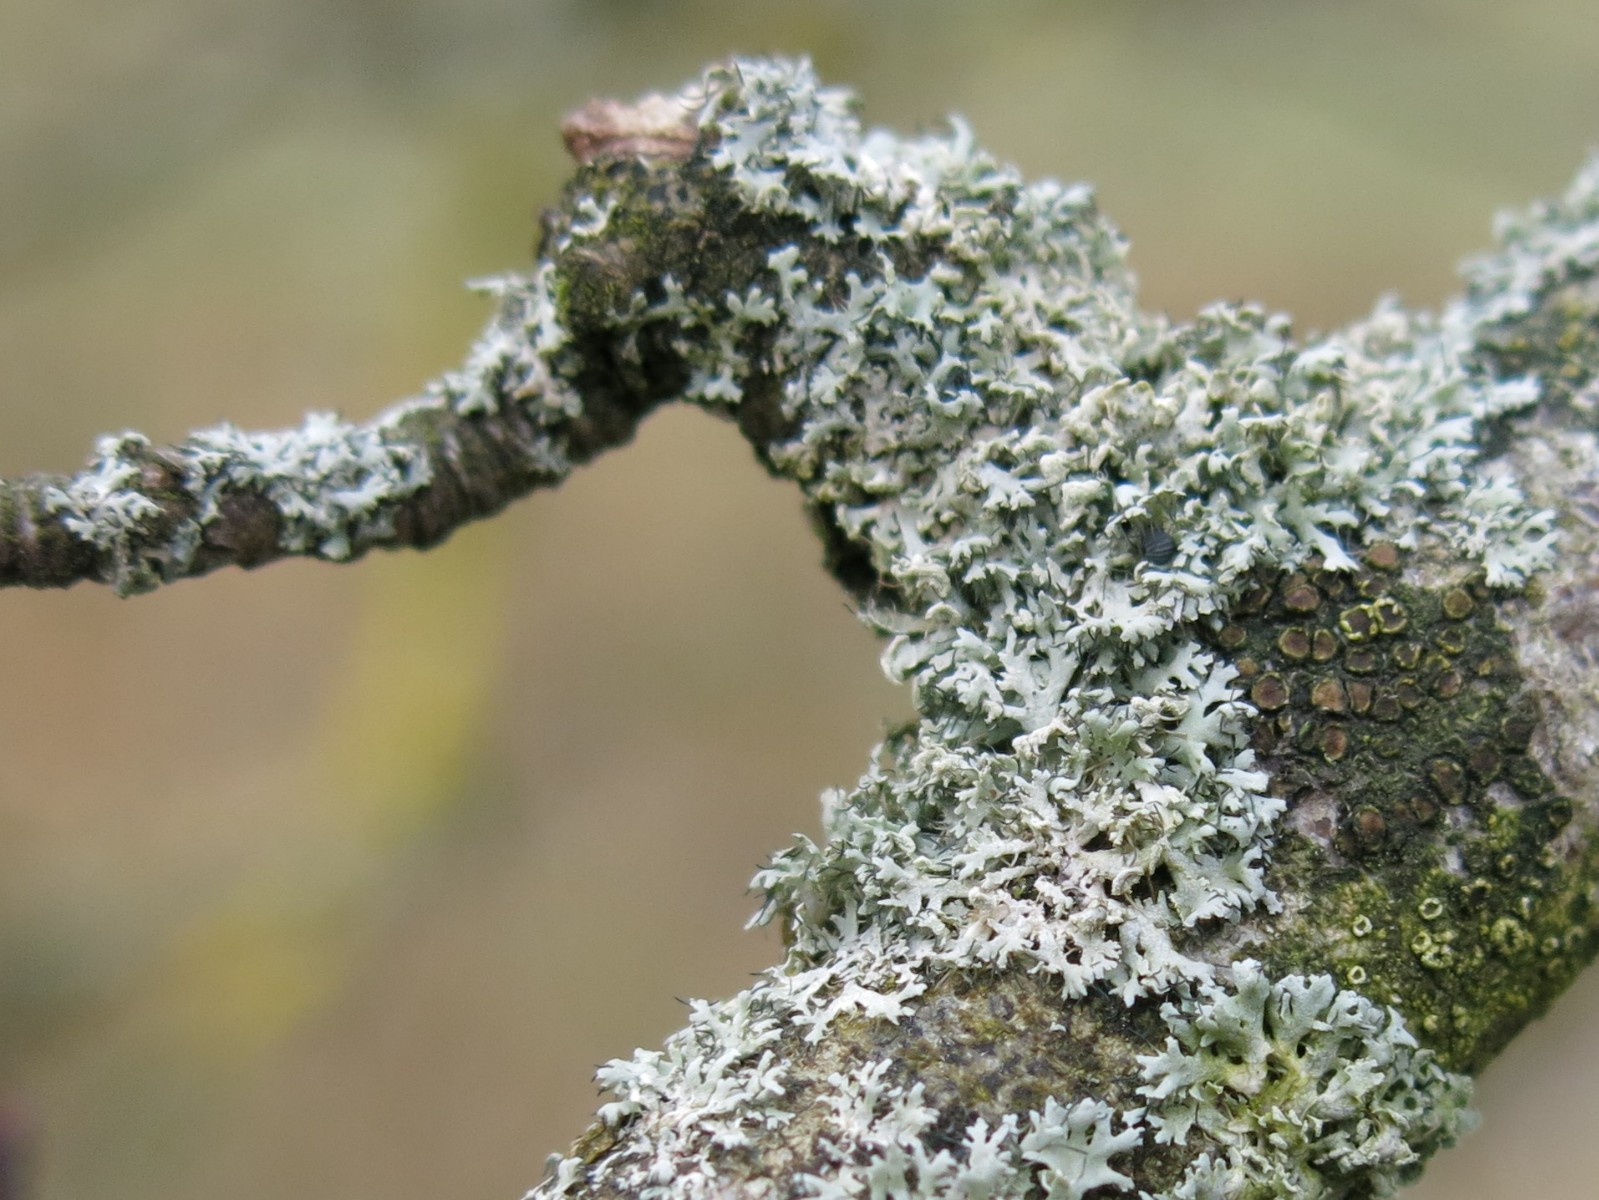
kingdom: Fungi
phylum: Ascomycota
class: Lecanoromycetes
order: Caliciales
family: Physciaceae
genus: Physcia
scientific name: Physcia tenella
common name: spæd rosetlav
